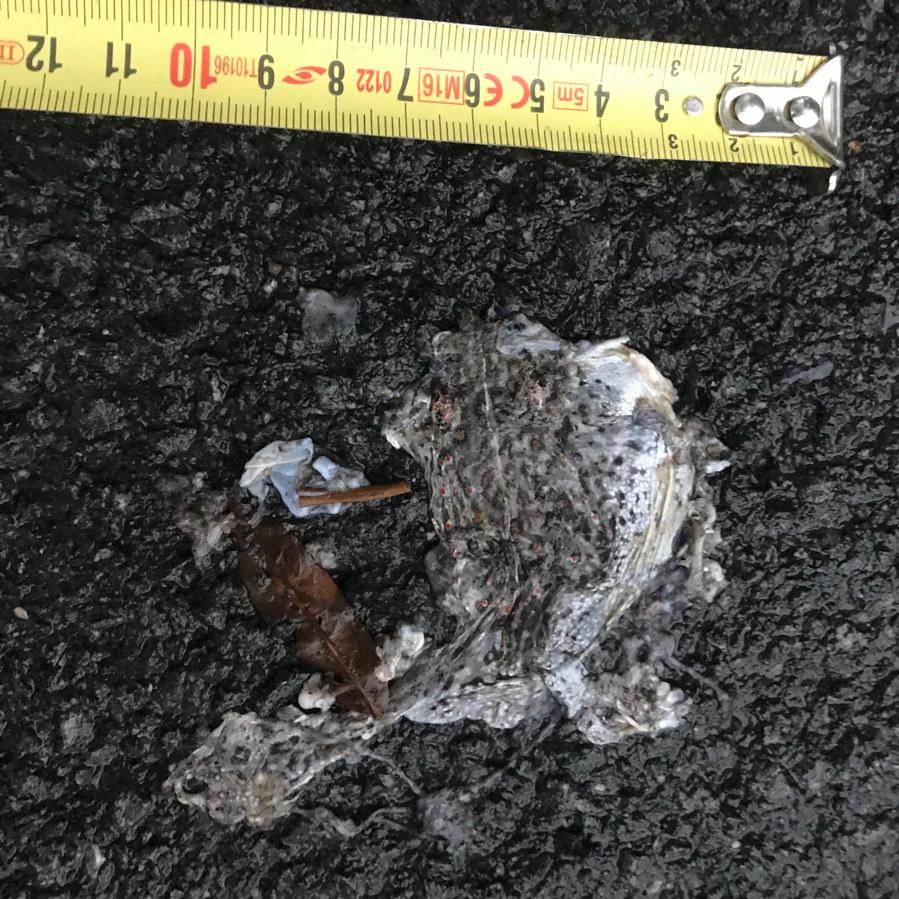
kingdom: Animalia
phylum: Chordata
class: Amphibia
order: Anura
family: Bufonidae
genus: Epidalea
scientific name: Epidalea calamita
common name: Natterjack toad
